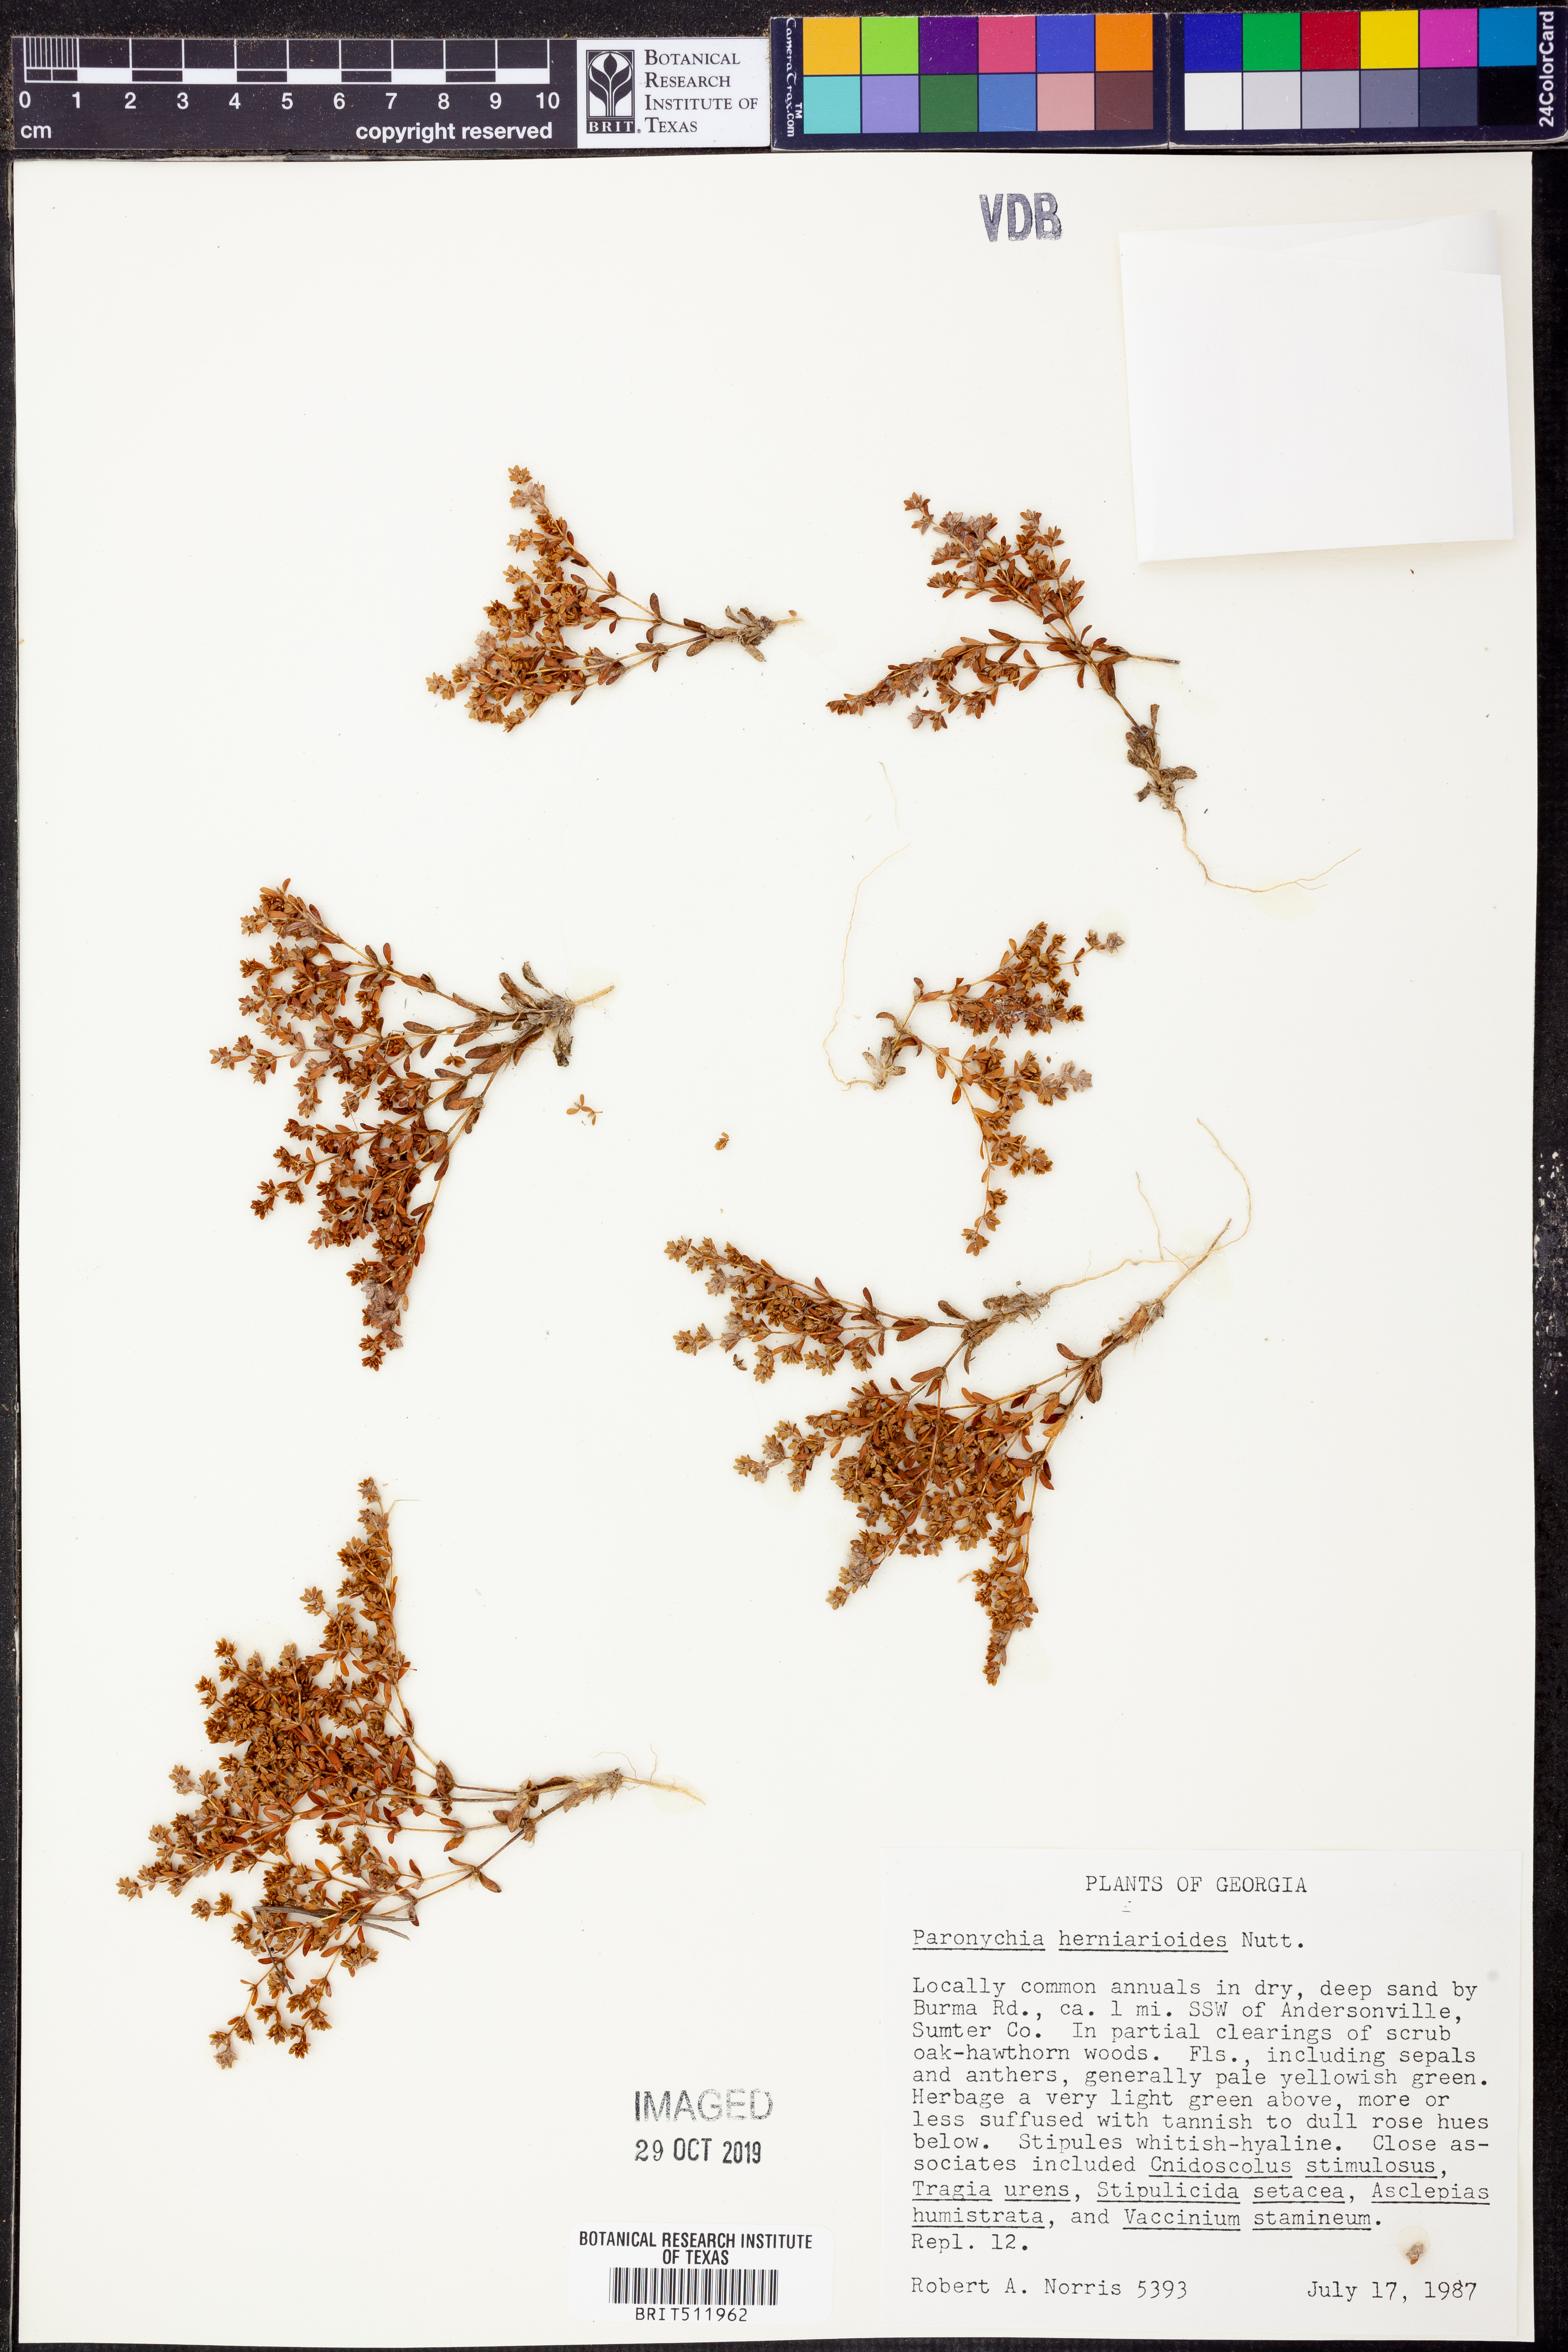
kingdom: Plantae
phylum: Tracheophyta
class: Magnoliopsida
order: Caryophyllales
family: Caryophyllaceae
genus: Paronychia
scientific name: Paronychia herniarioides
